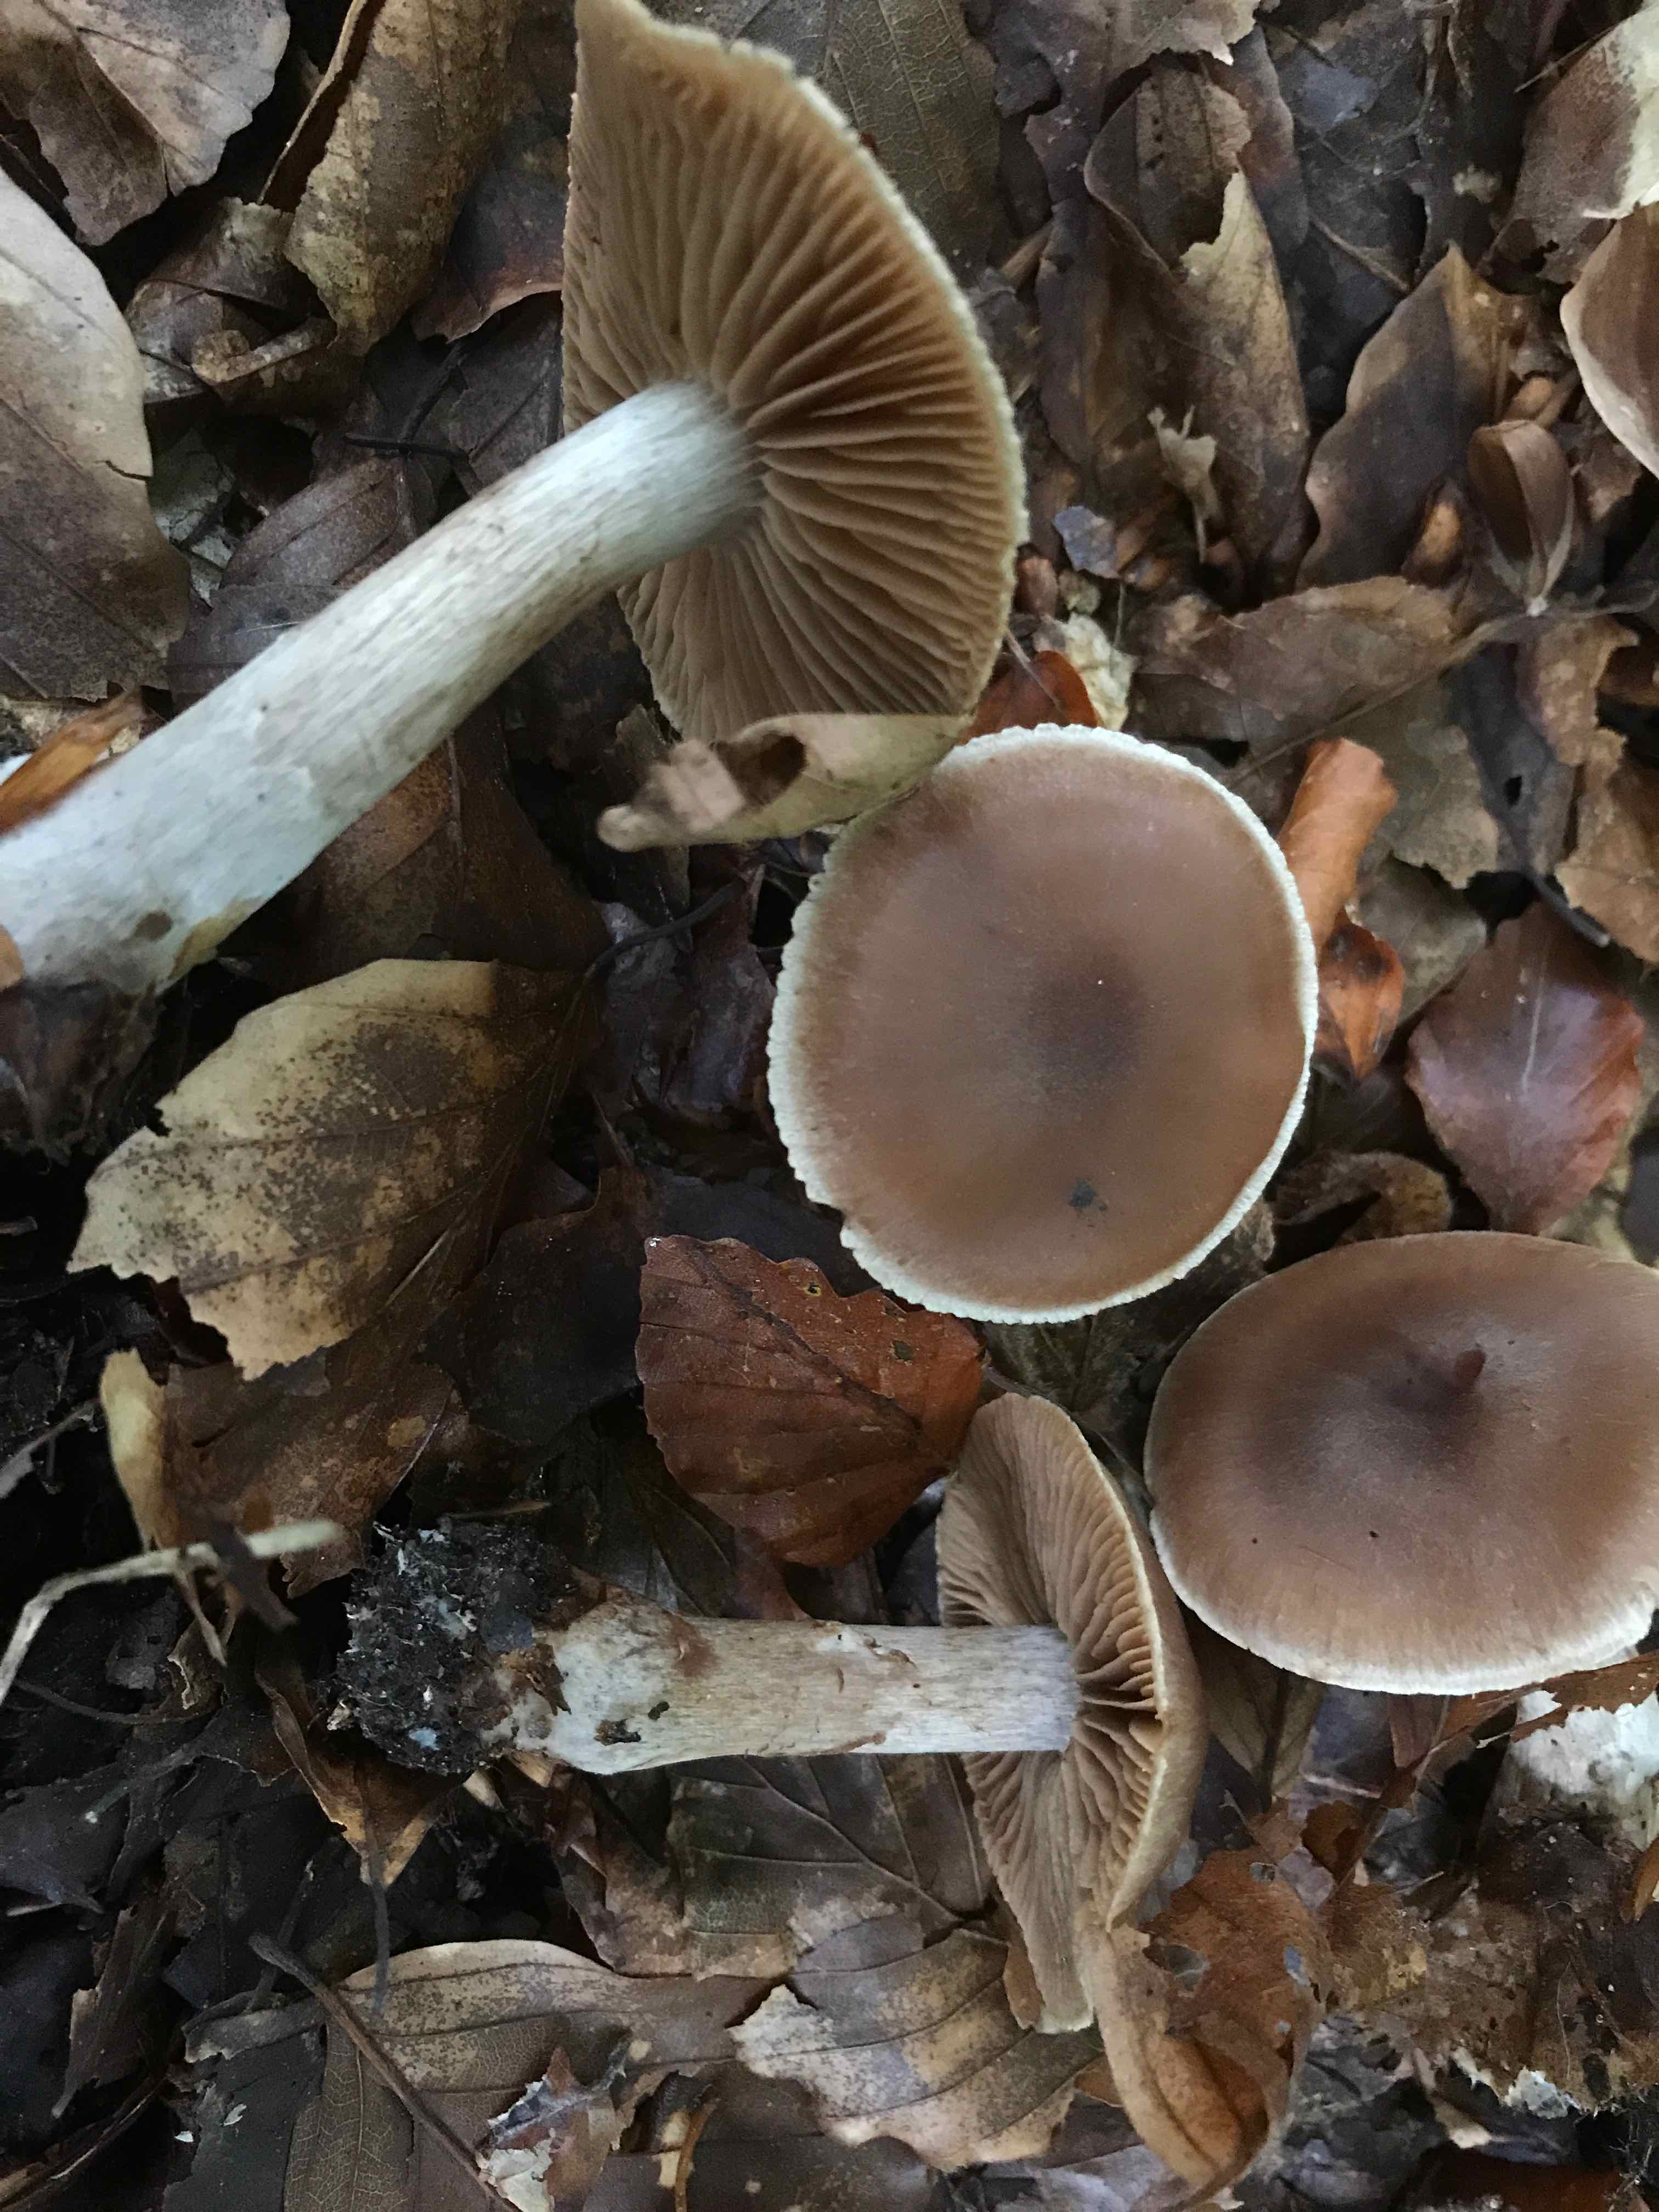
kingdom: Fungi
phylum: Basidiomycota
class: Agaricomycetes
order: Agaricales
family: Cortinariaceae
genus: Cortinarius
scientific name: Cortinarius
